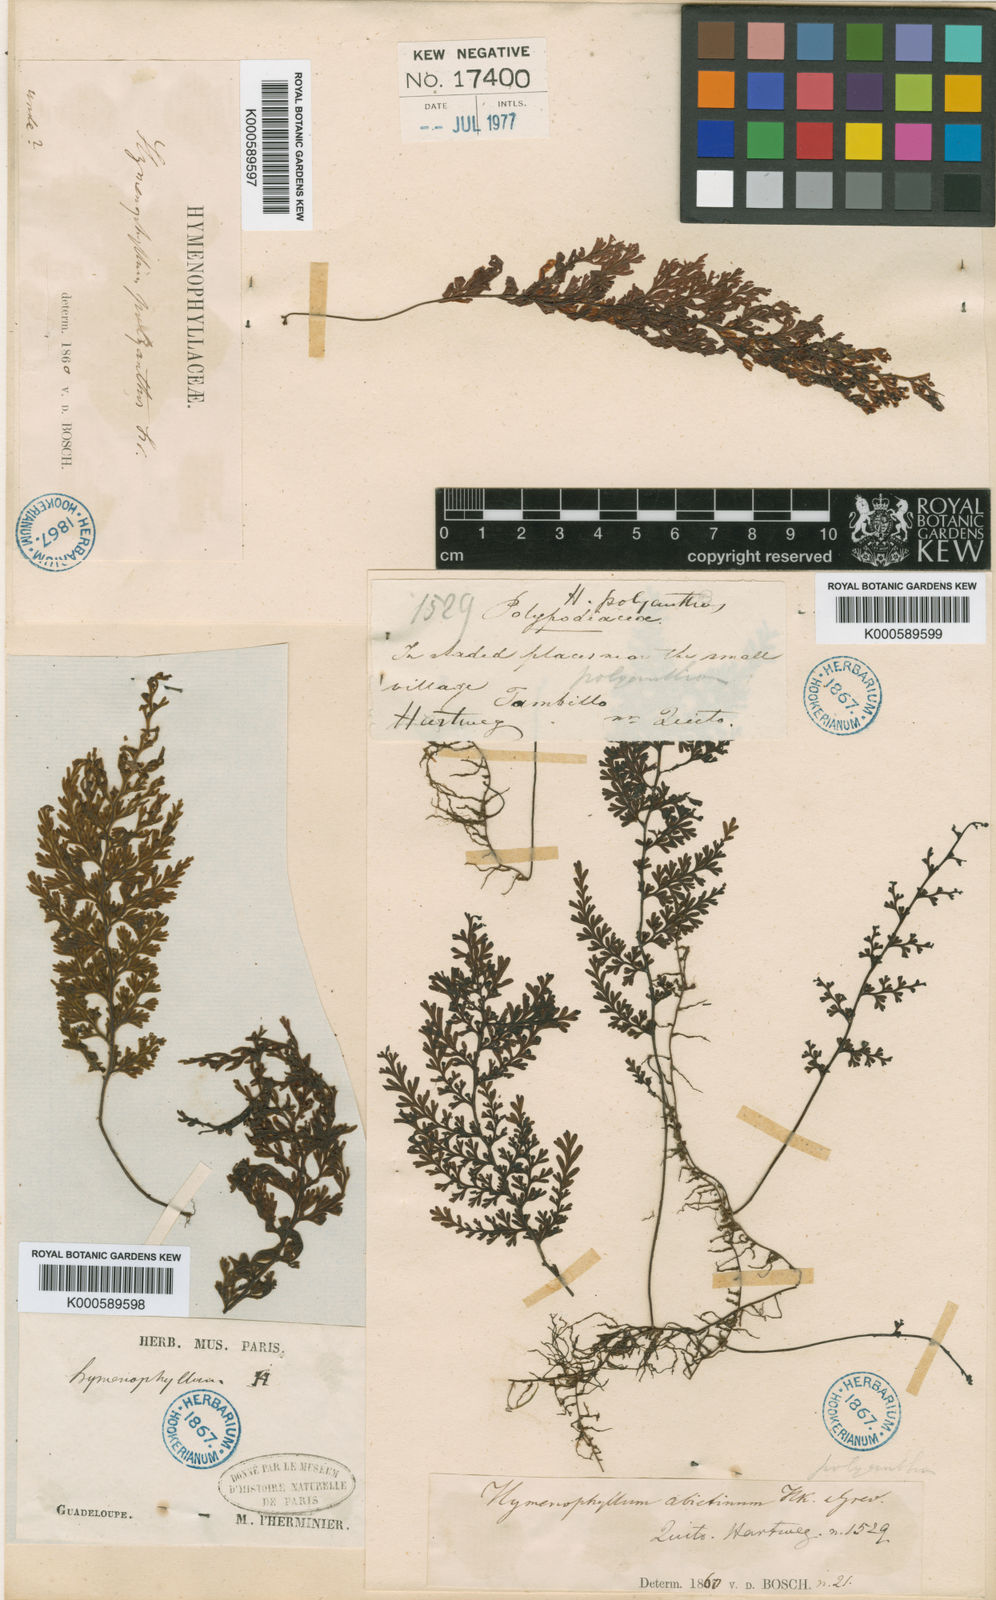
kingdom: Plantae
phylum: Tracheophyta
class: Polypodiopsida
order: Hymenophyllales
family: Hymenophyllaceae
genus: Hymenophyllum
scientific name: Hymenophyllum polyanthos
